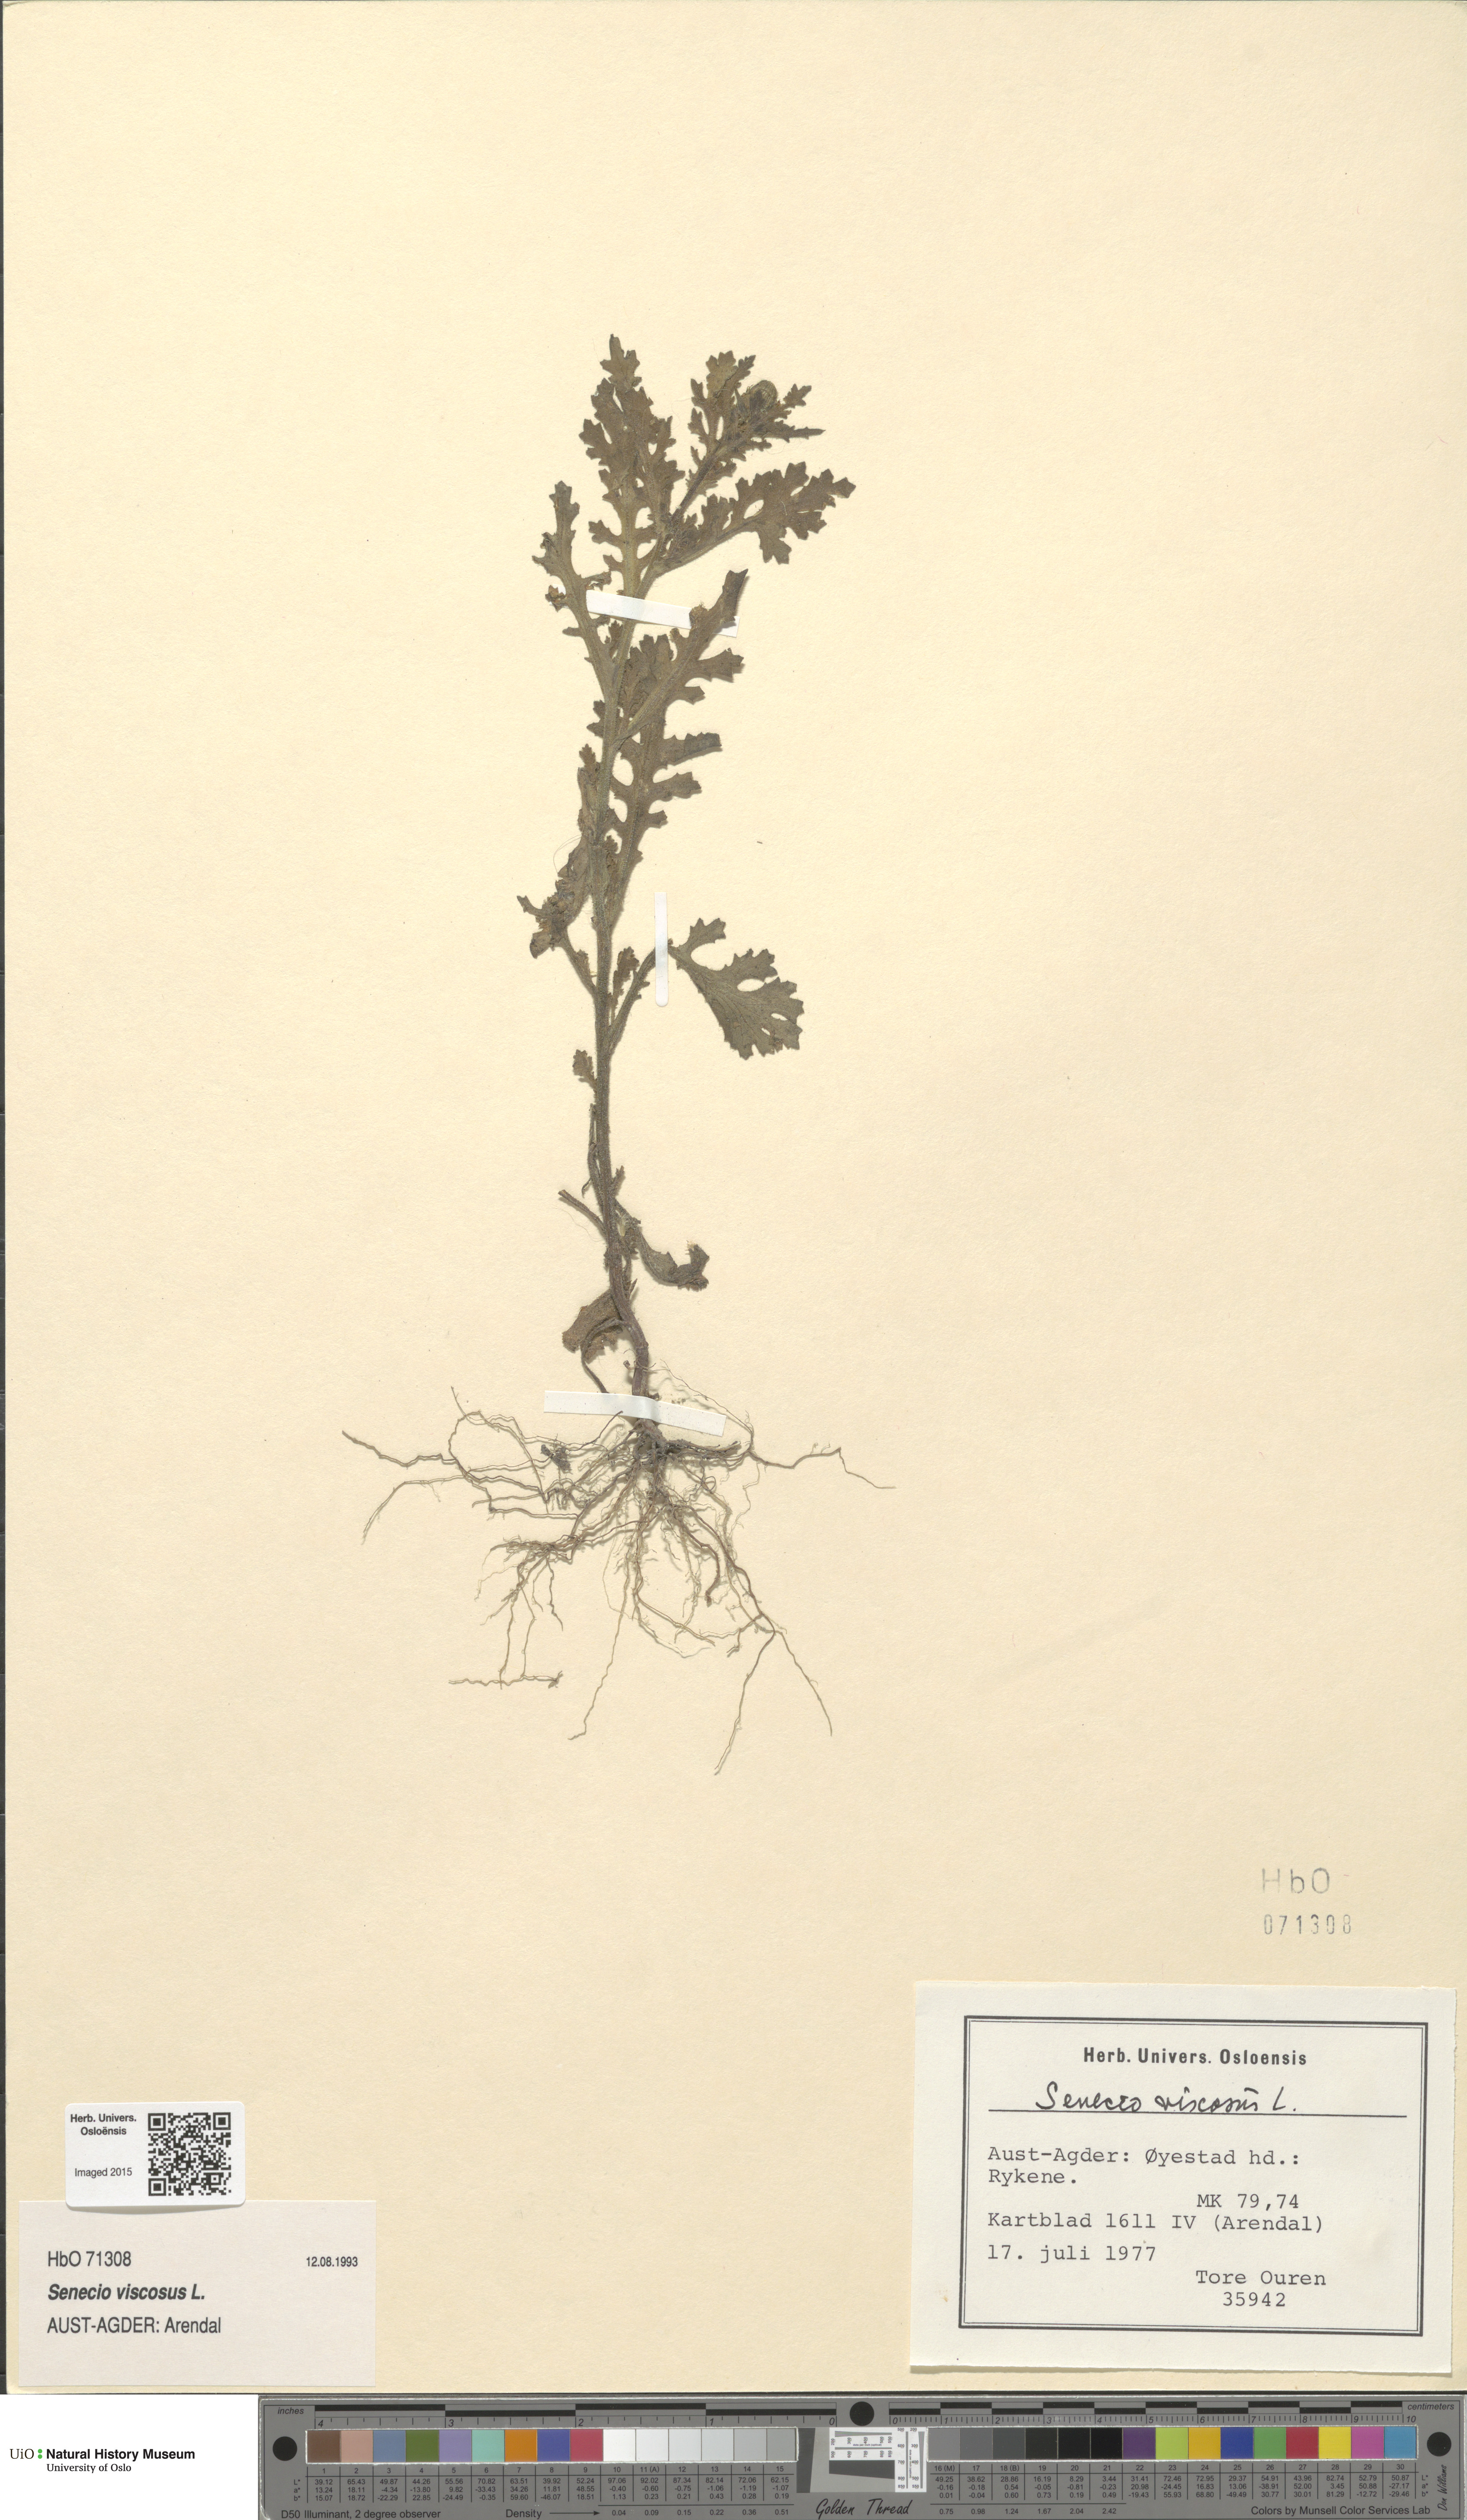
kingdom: Plantae
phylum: Tracheophyta
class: Magnoliopsida
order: Asterales
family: Asteraceae
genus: Senecio
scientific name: Senecio viscosus
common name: Sticky groundsel
